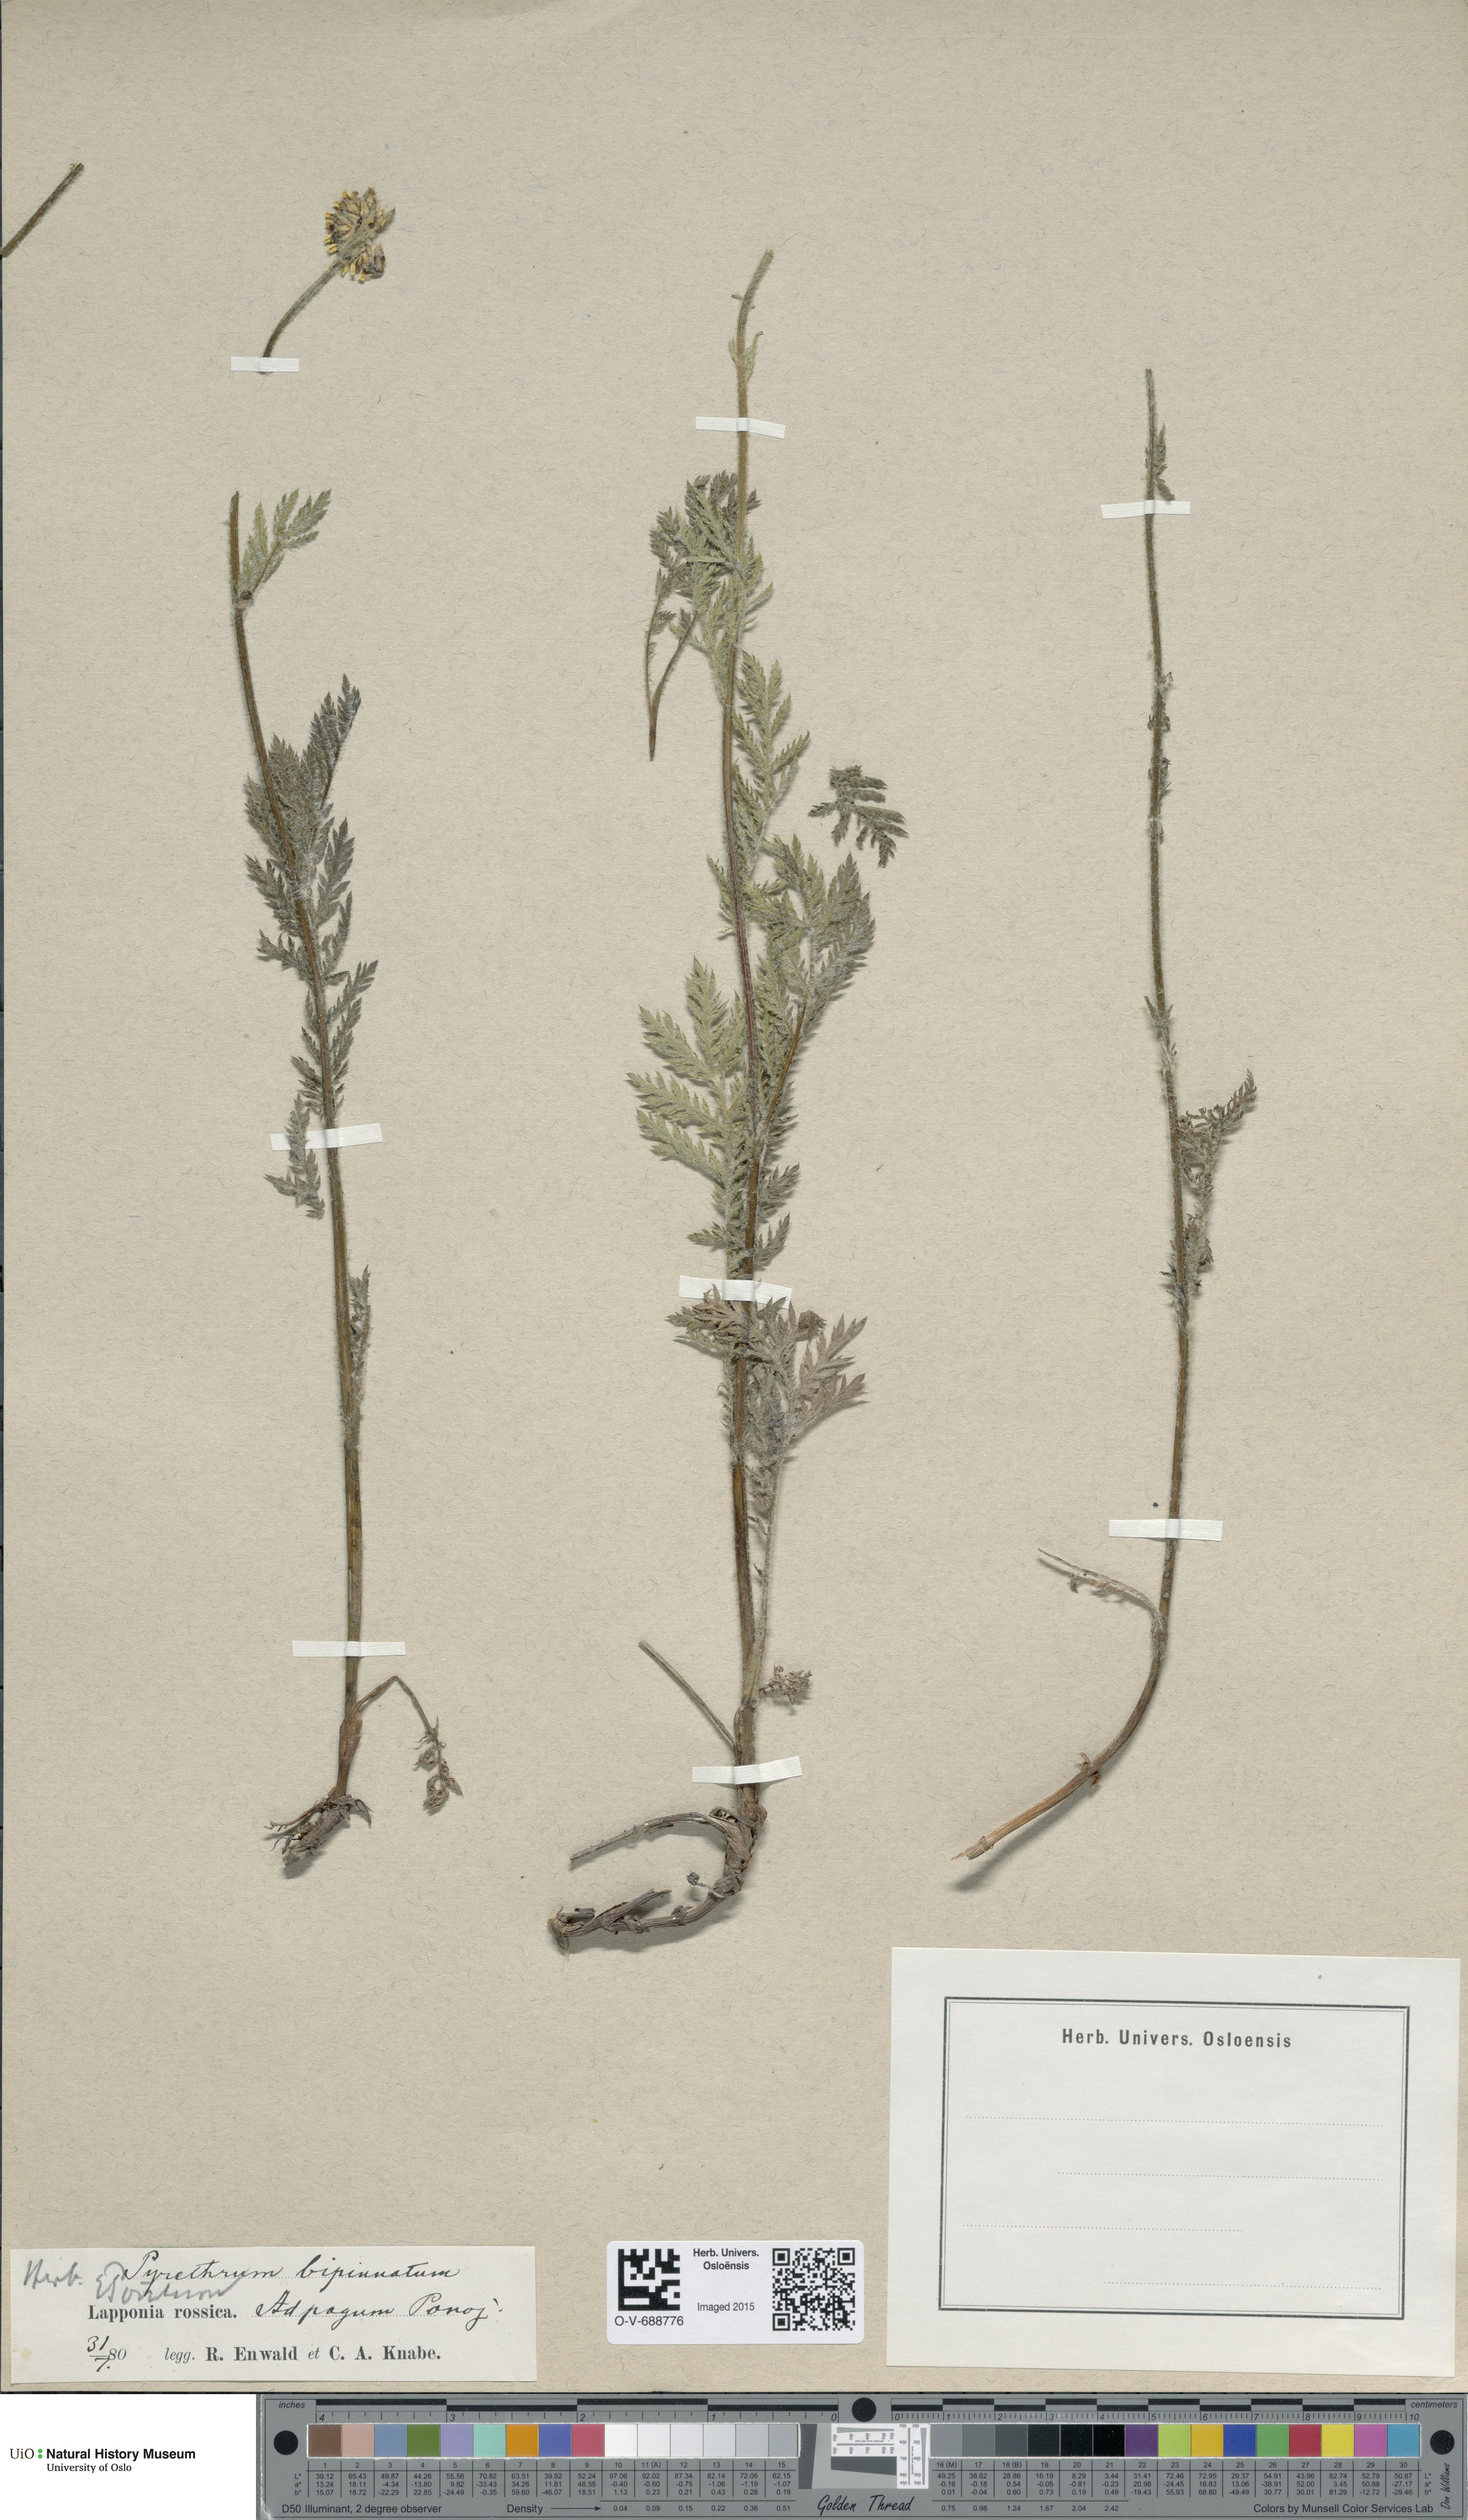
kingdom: Plantae
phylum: Tracheophyta
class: Magnoliopsida
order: Asterales
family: Asteraceae
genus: Tanacetum
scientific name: Tanacetum bipinnatum
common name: Dwarf tansy
